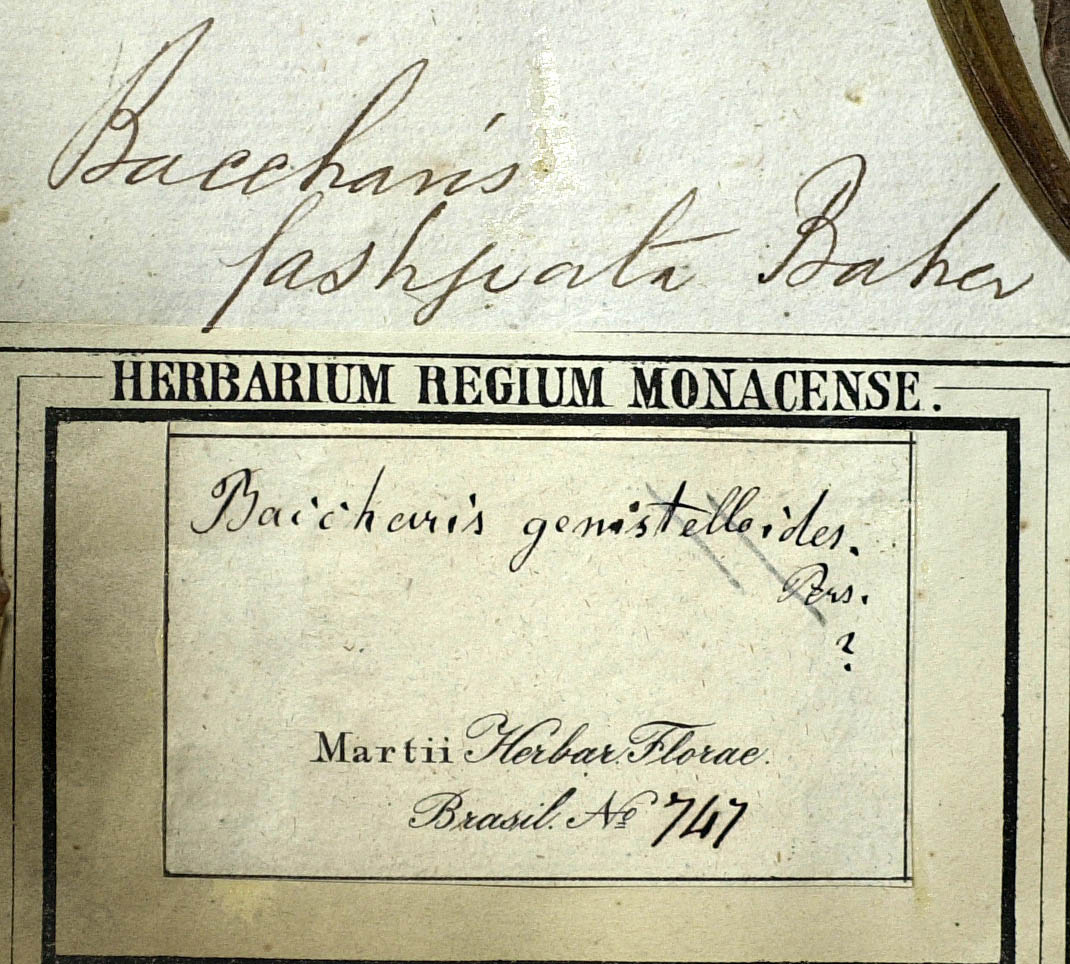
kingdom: Plantae
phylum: Tracheophyta
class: Magnoliopsida
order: Asterales
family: Asteraceae
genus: Baccharis
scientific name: Baccharis pentaptera
